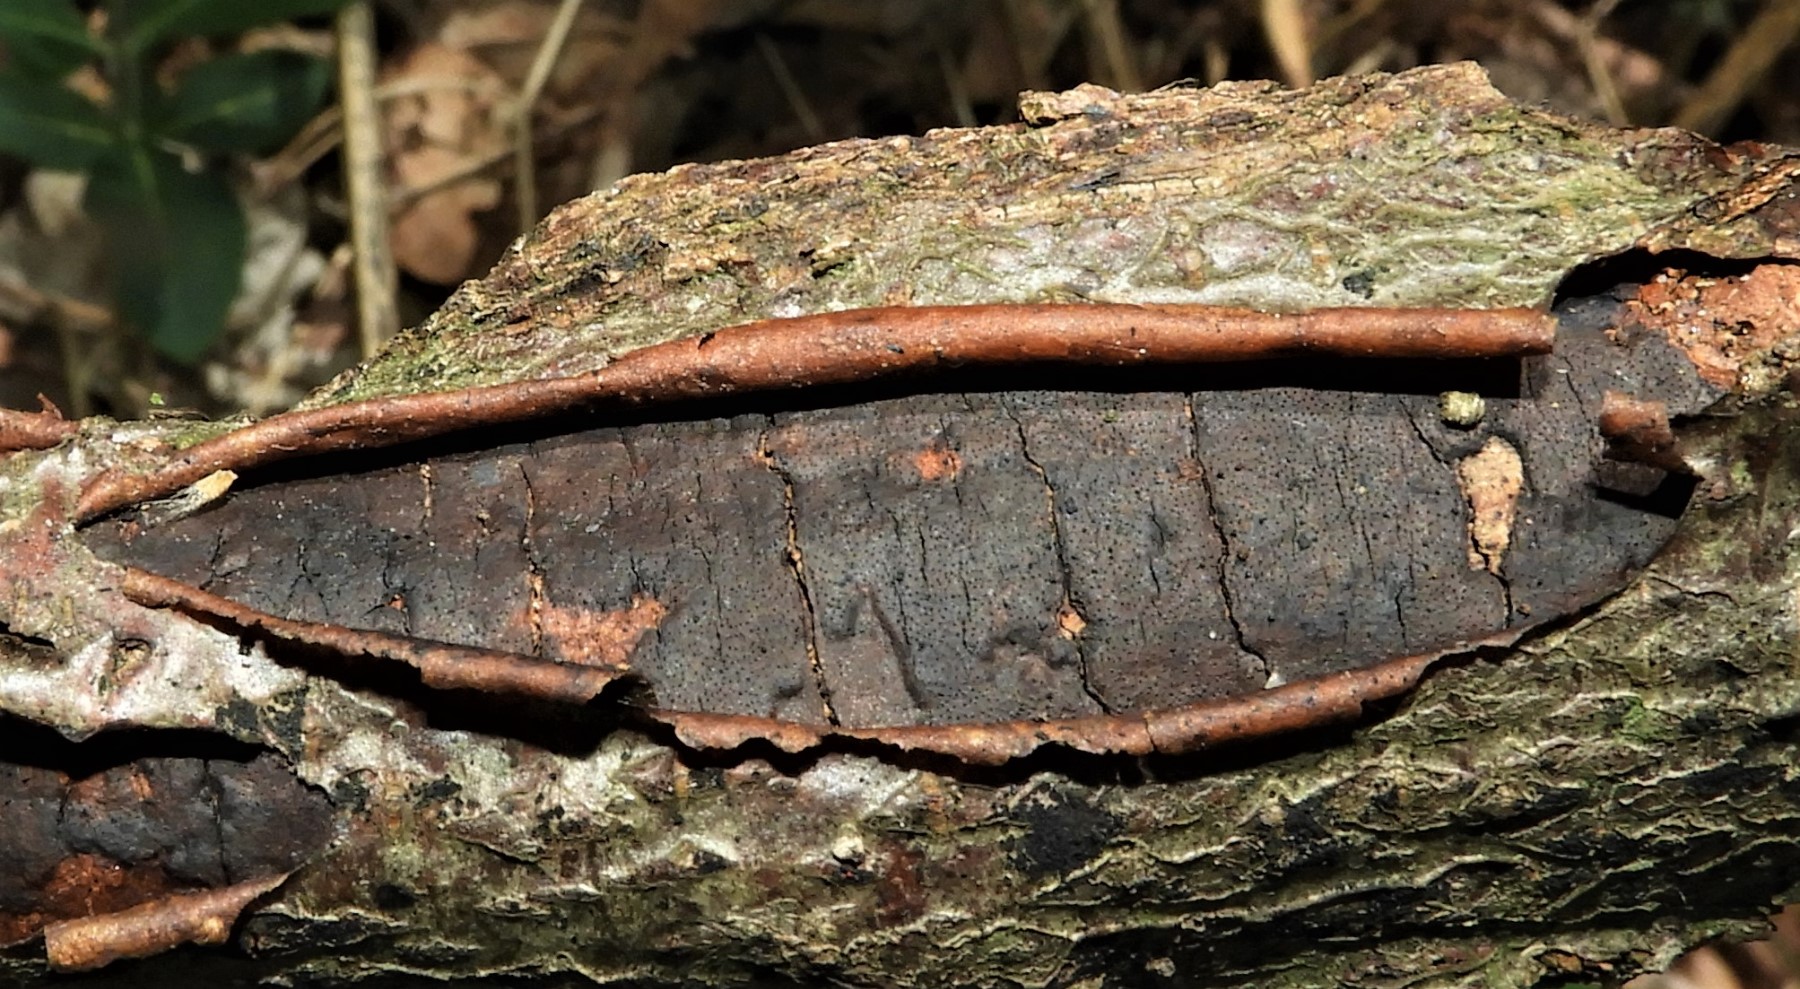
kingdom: Fungi
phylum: Ascomycota
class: Sordariomycetes
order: Xylariales
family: Diatrypaceae
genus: Diatrype
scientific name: Diatrype decorticata
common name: barksprænger-kulskorpe
